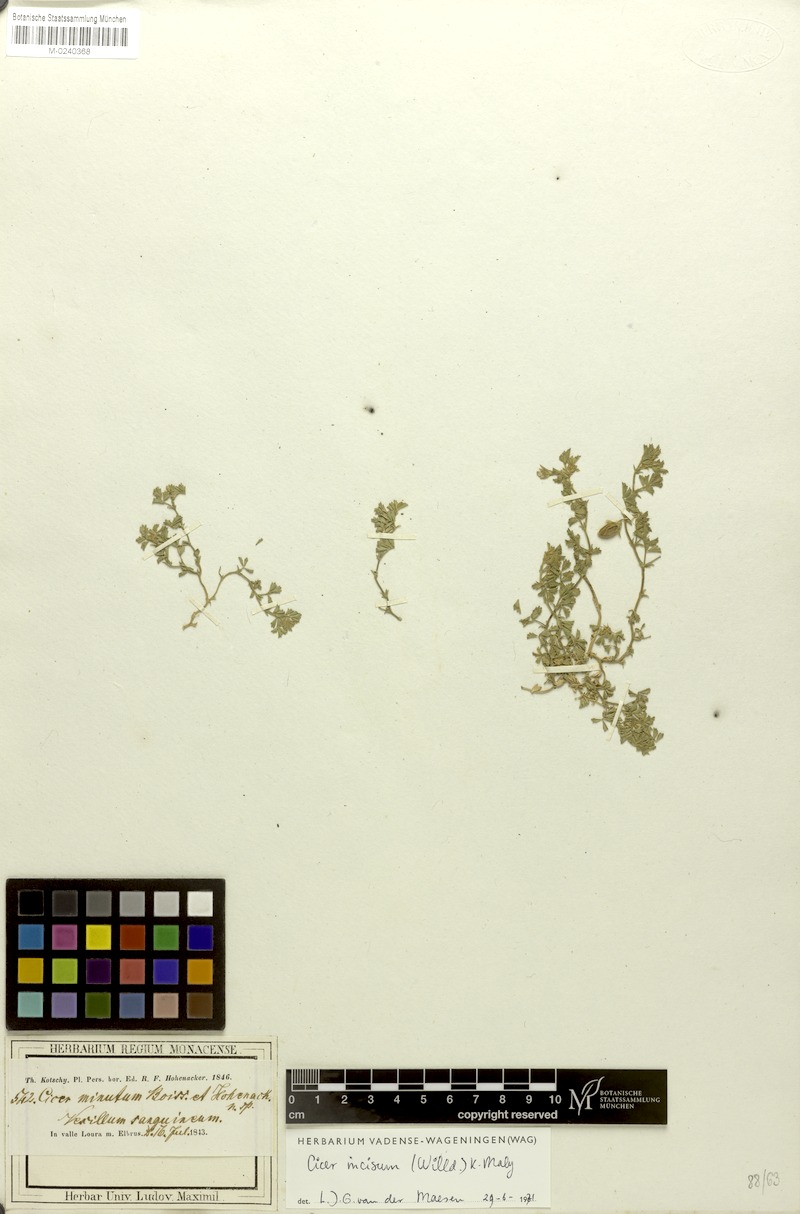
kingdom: Plantae
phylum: Tracheophyta
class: Magnoliopsida
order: Fabales
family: Fabaceae
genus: Cicer
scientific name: Cicer incisum
